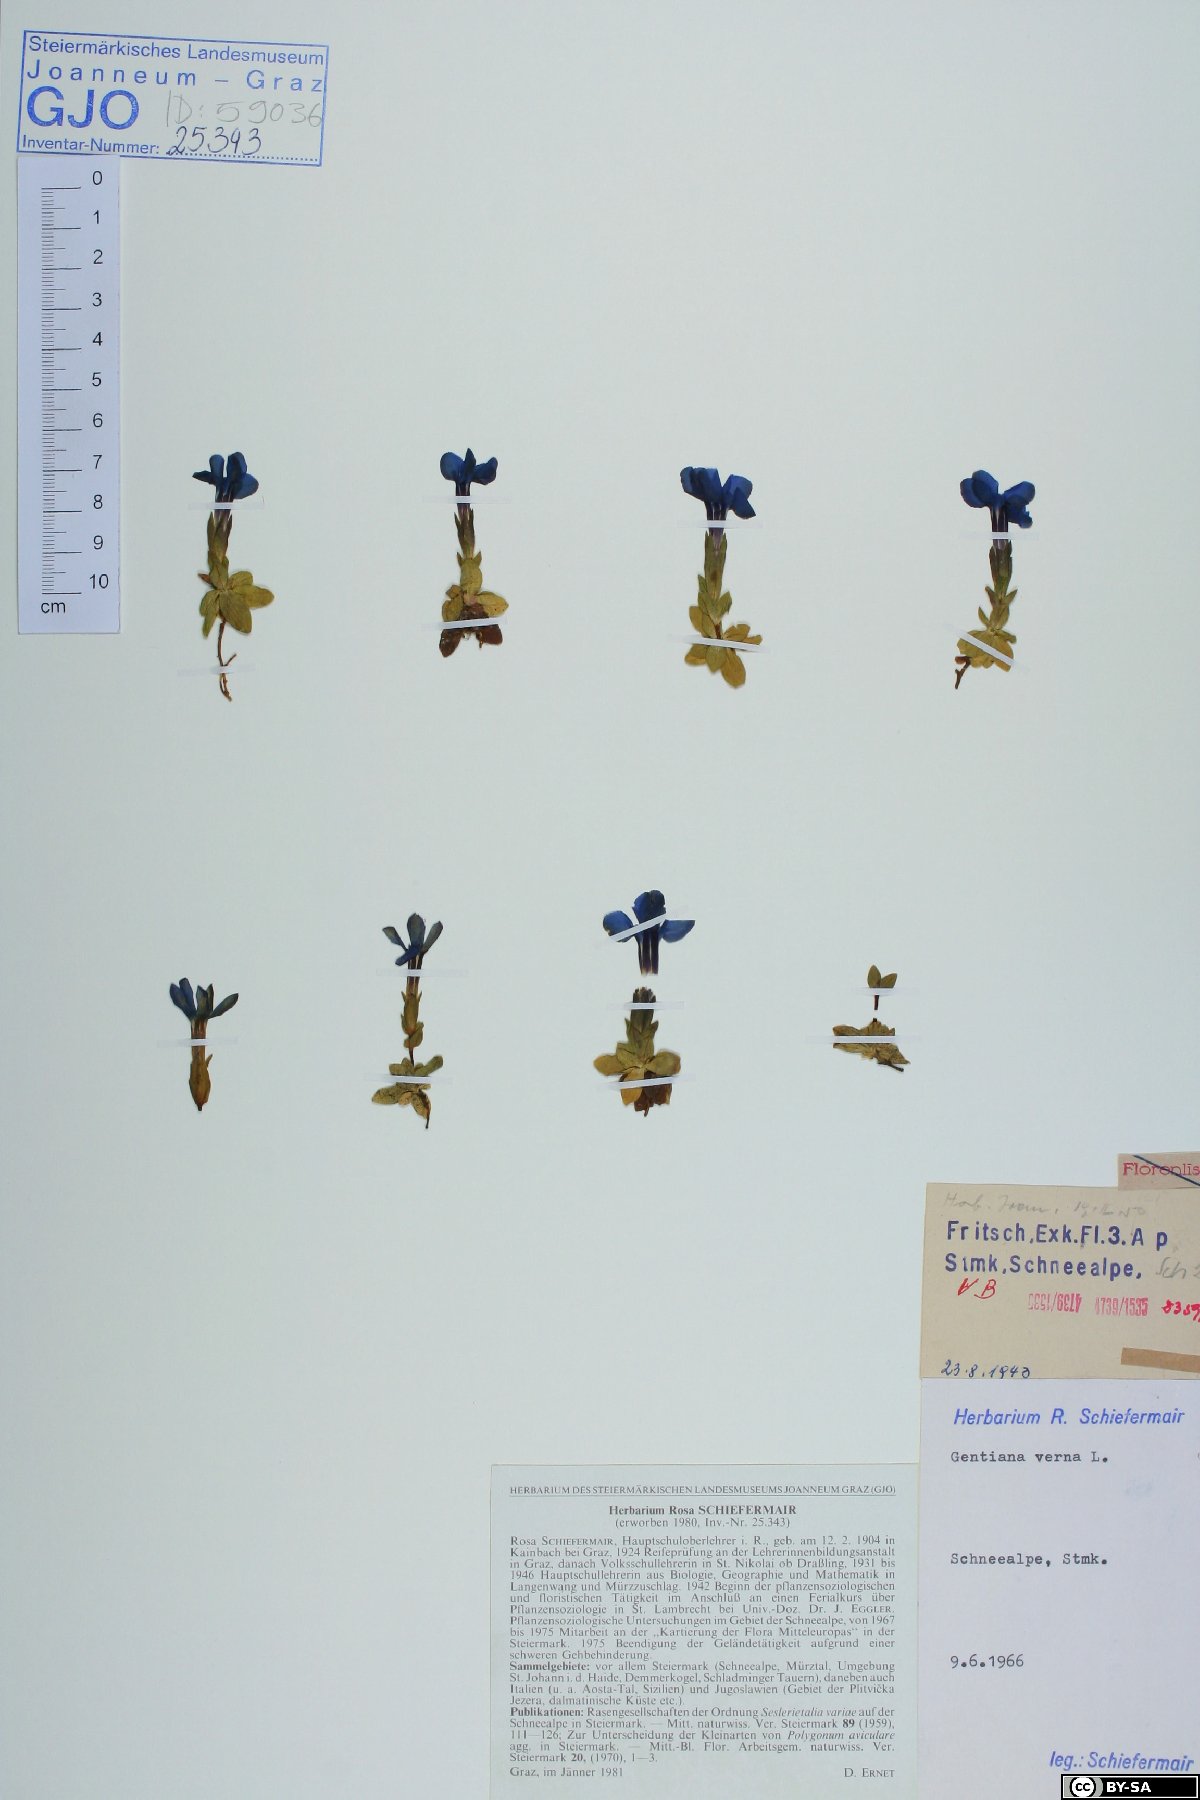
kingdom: Plantae
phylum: Tracheophyta
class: Magnoliopsida
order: Gentianales
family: Gentianaceae
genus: Gentiana
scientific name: Gentiana verna
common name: Spring gentian
